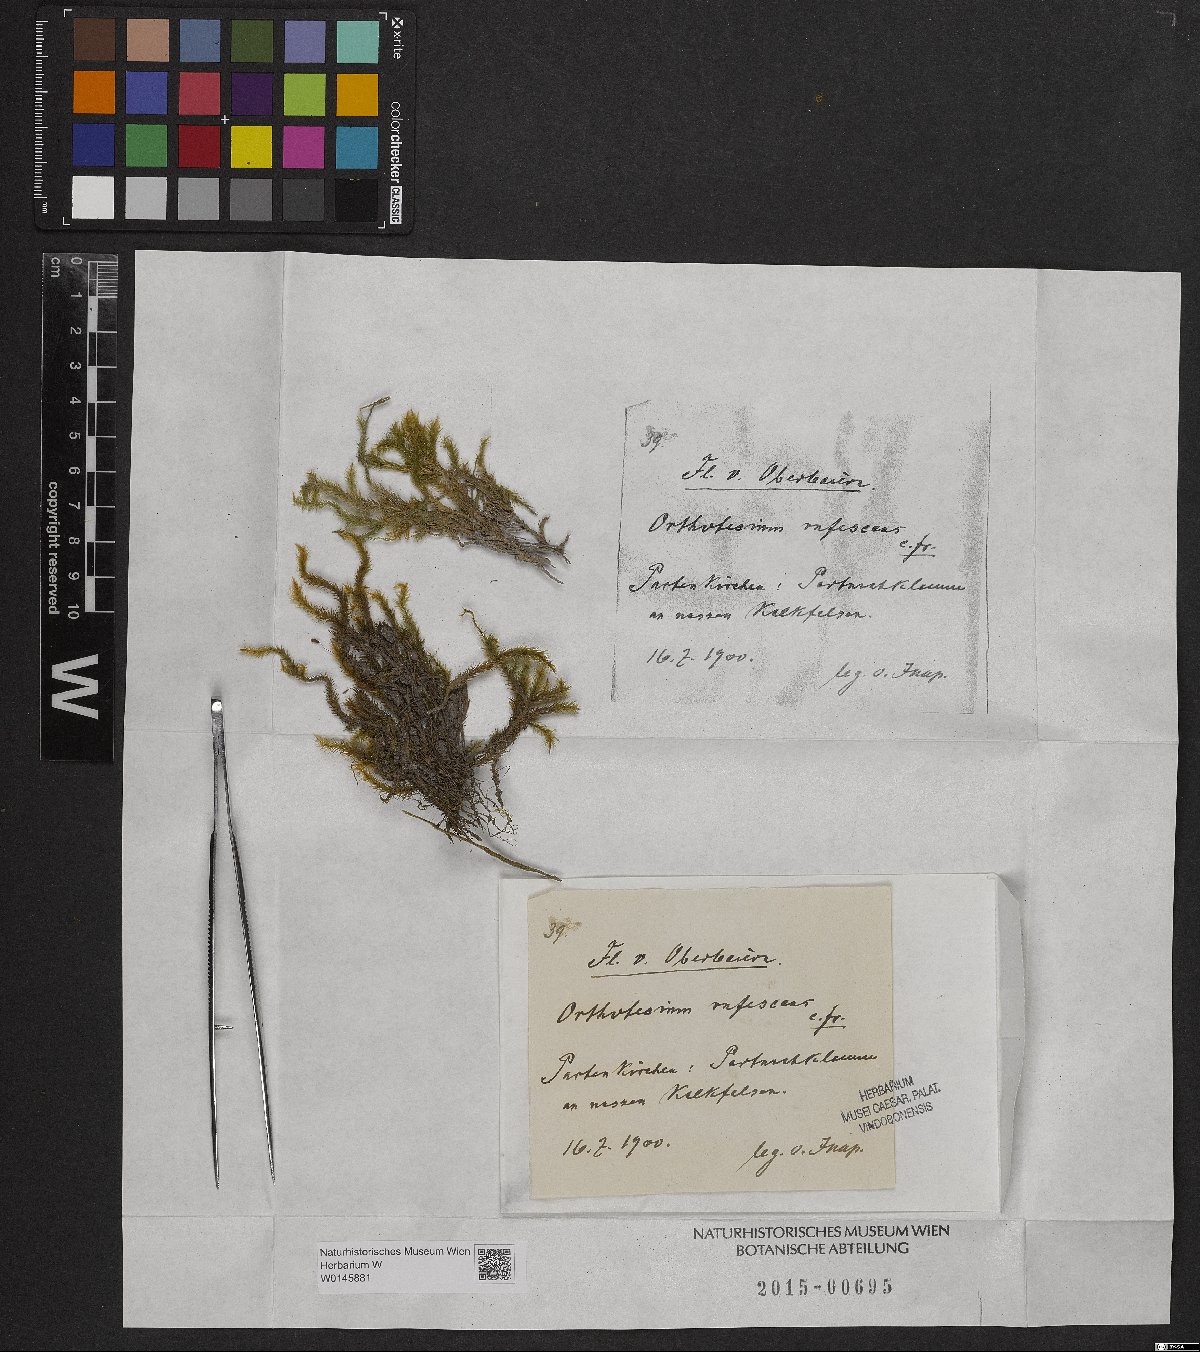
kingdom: Plantae
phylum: Bryophyta
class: Bryopsida
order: Hypnales
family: Plagiotheciaceae
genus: Orthothecium
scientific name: Orthothecium rufescens
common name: Red leskea
